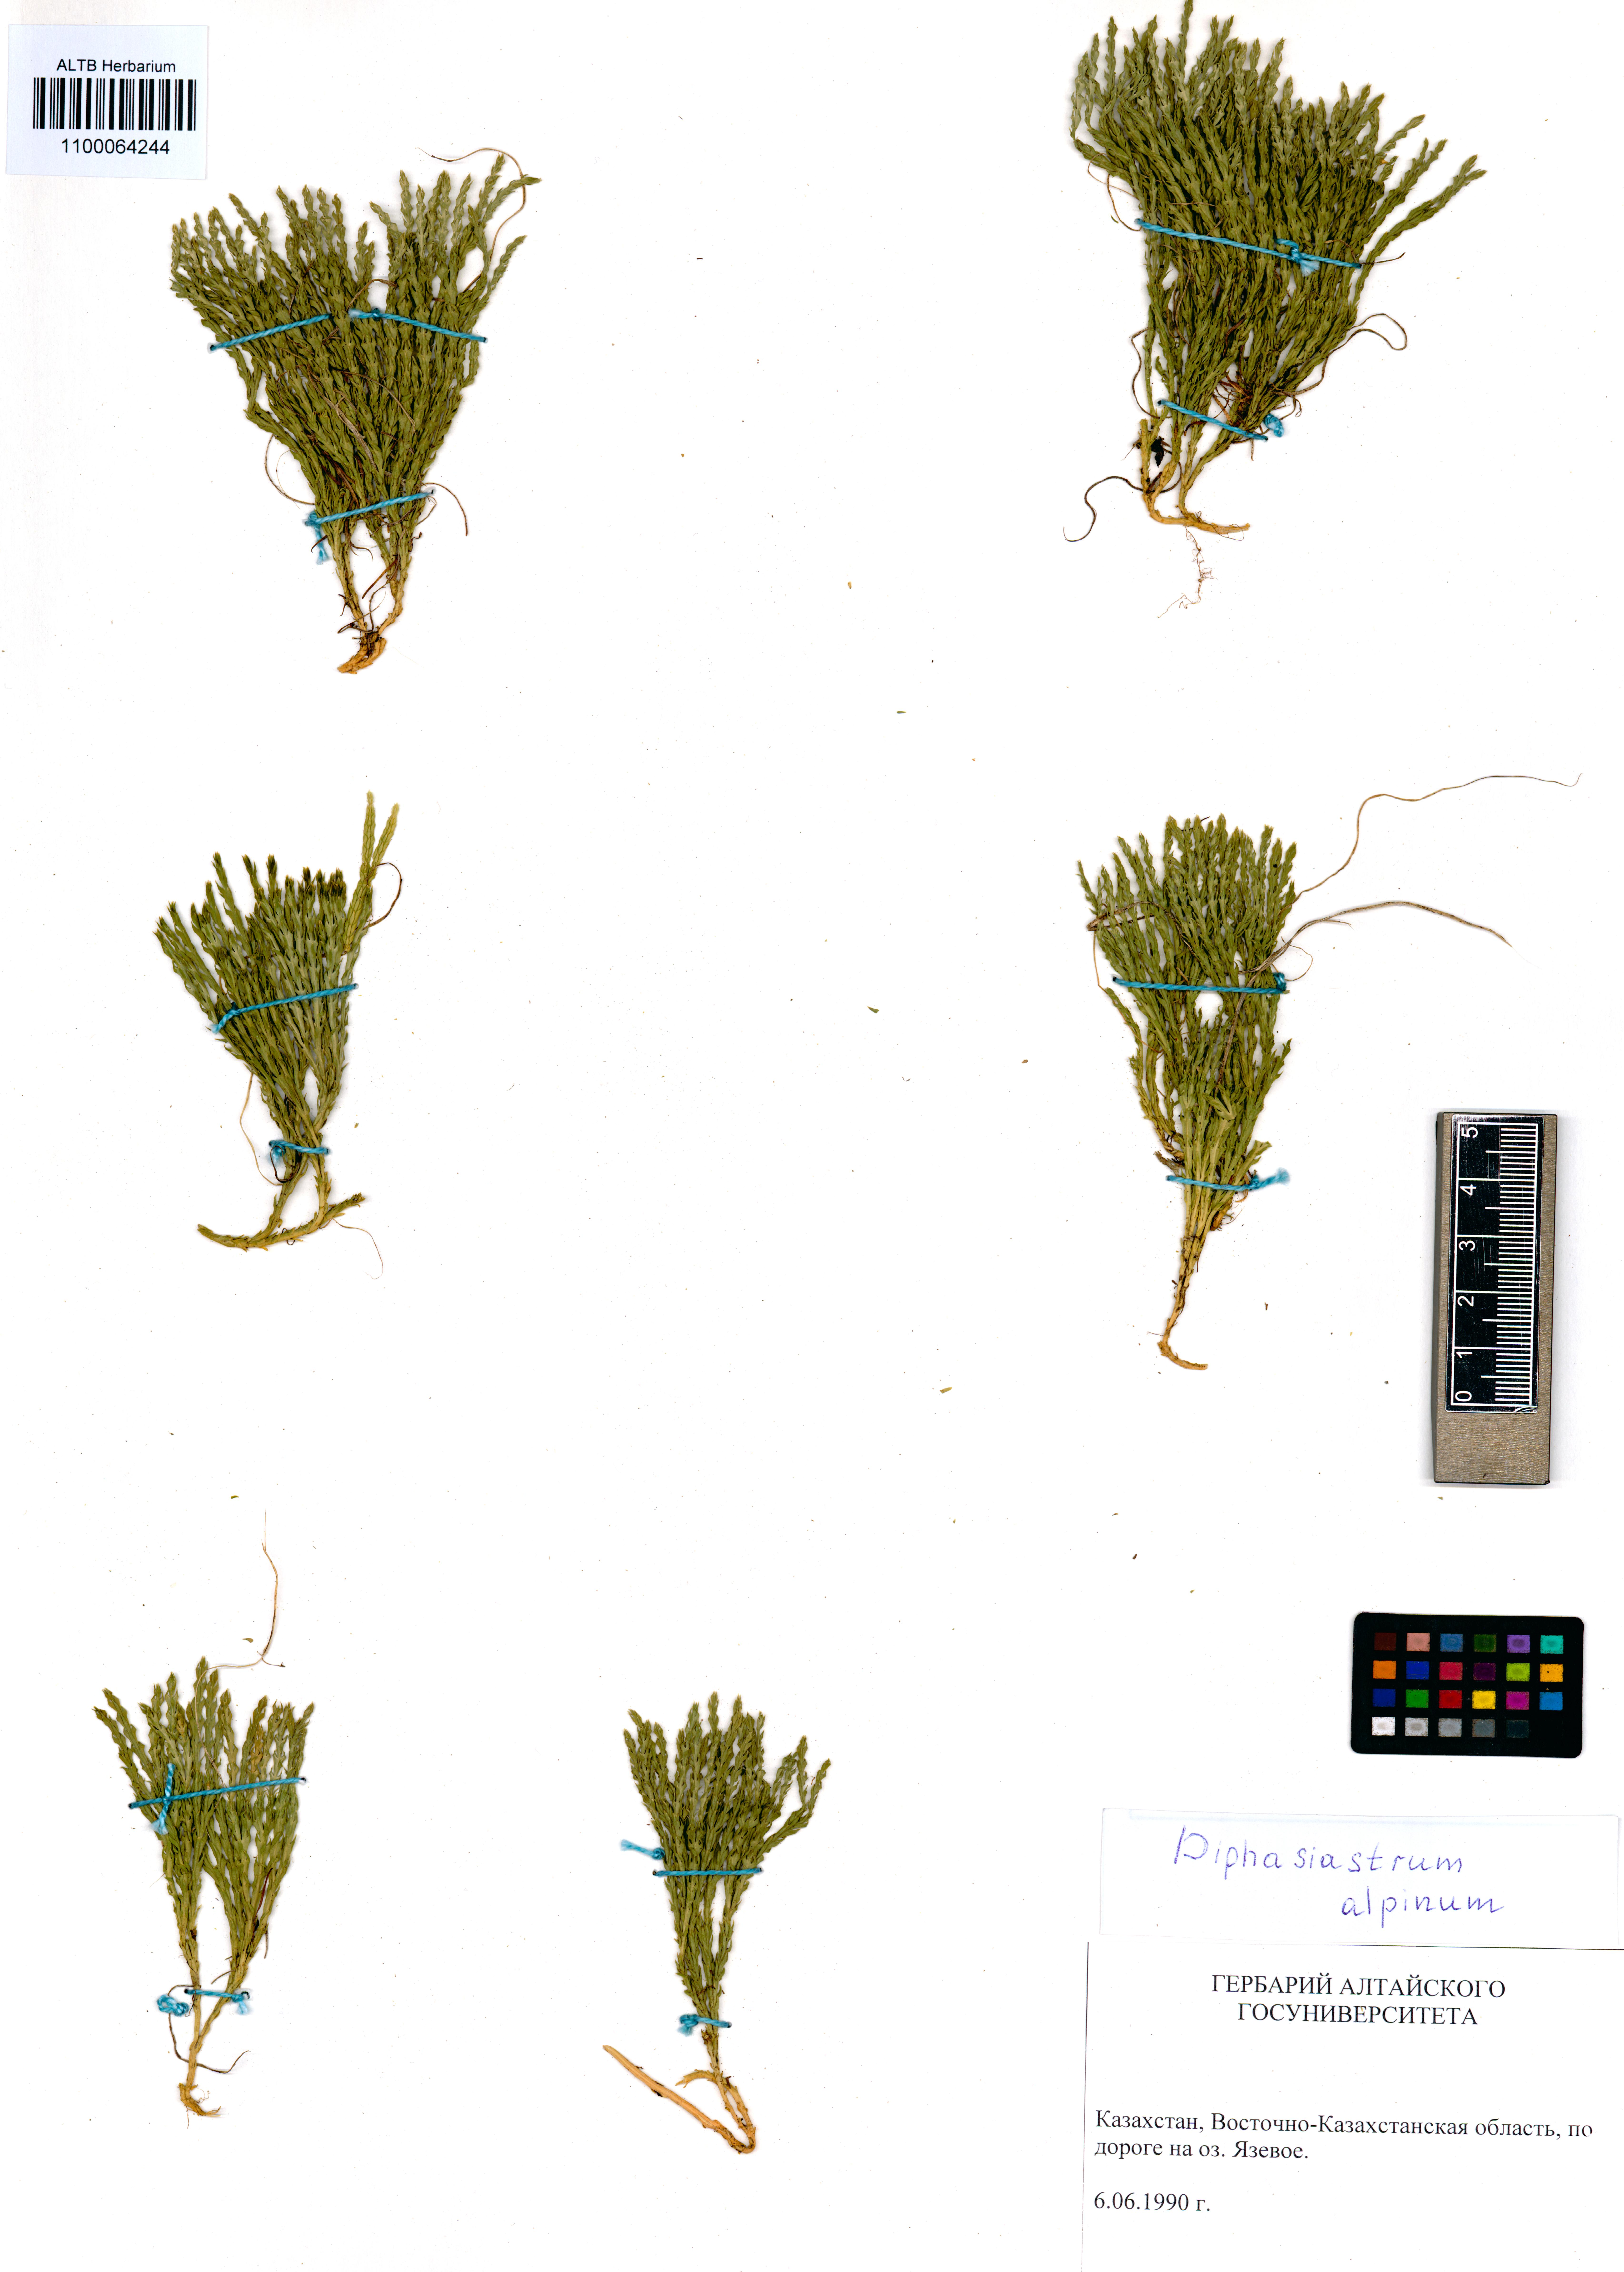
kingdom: Plantae
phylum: Tracheophyta
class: Lycopodiopsida
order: Lycopodiales
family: Lycopodiaceae
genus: Diphasiastrum
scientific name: Diphasiastrum alpinum
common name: Alpine clubmoss
